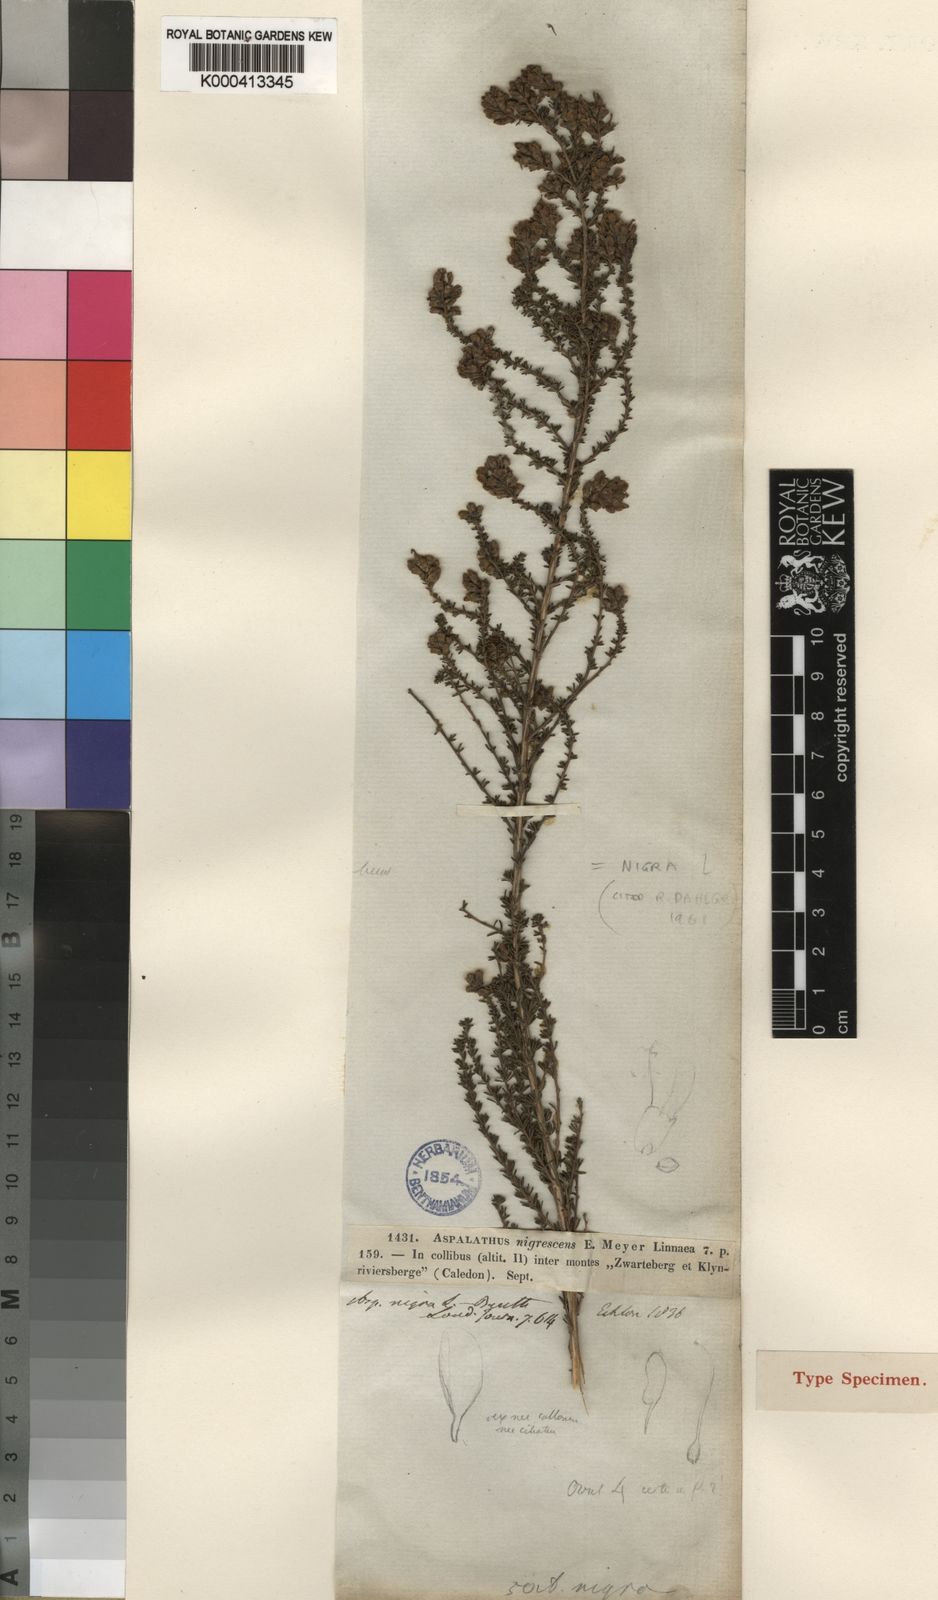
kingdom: Plantae
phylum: Tracheophyta
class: Magnoliopsida
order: Fabales
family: Fabaceae
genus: Aspalathus
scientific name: Aspalathus nigra
